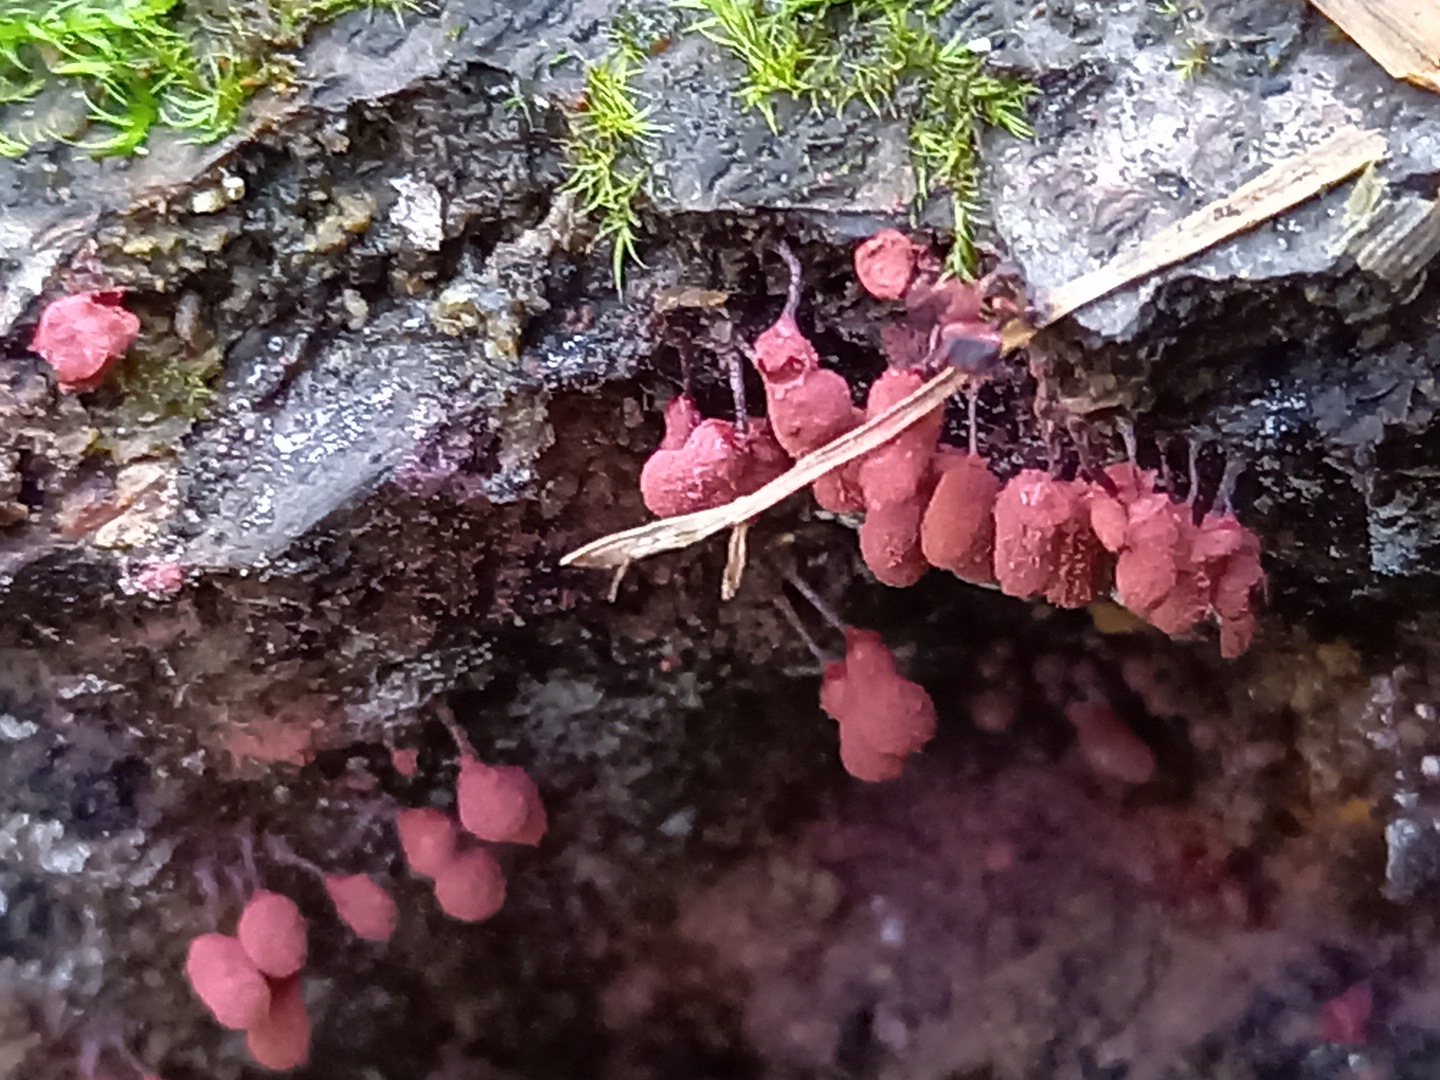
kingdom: Protozoa
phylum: Mycetozoa
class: Myxomycetes
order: Trichiales
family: Arcyriaceae
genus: Arcyria
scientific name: Arcyria denudata
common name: karminrød skålsvøb
